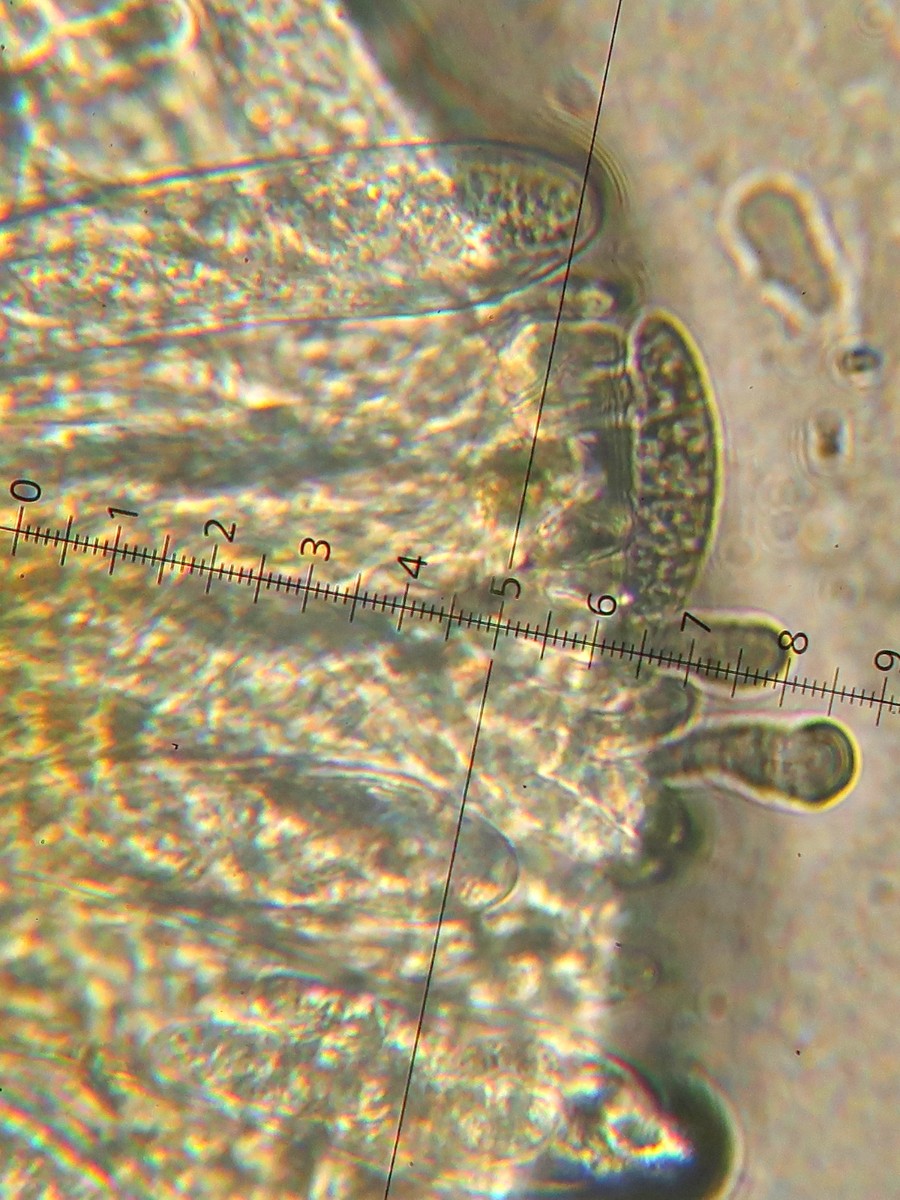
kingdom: Fungi
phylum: Ascomycota
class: Leotiomycetes
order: Helotiales
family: Dermateaceae
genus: Pezicula
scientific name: Pezicula eucrita
